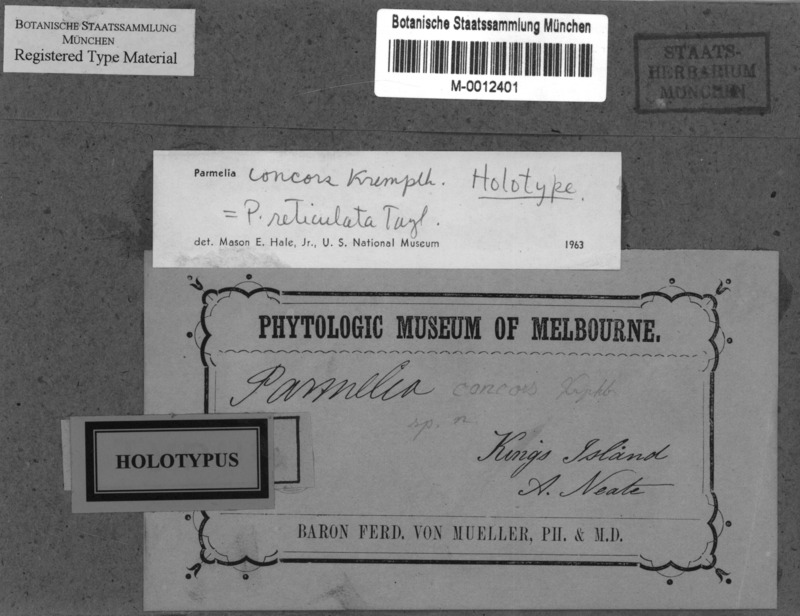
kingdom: Fungi
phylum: Ascomycota
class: Lecanoromycetes
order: Lecanorales
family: Parmeliaceae
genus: Parmotrema
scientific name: Parmotrema reticulatum
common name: Black sheet lichen
